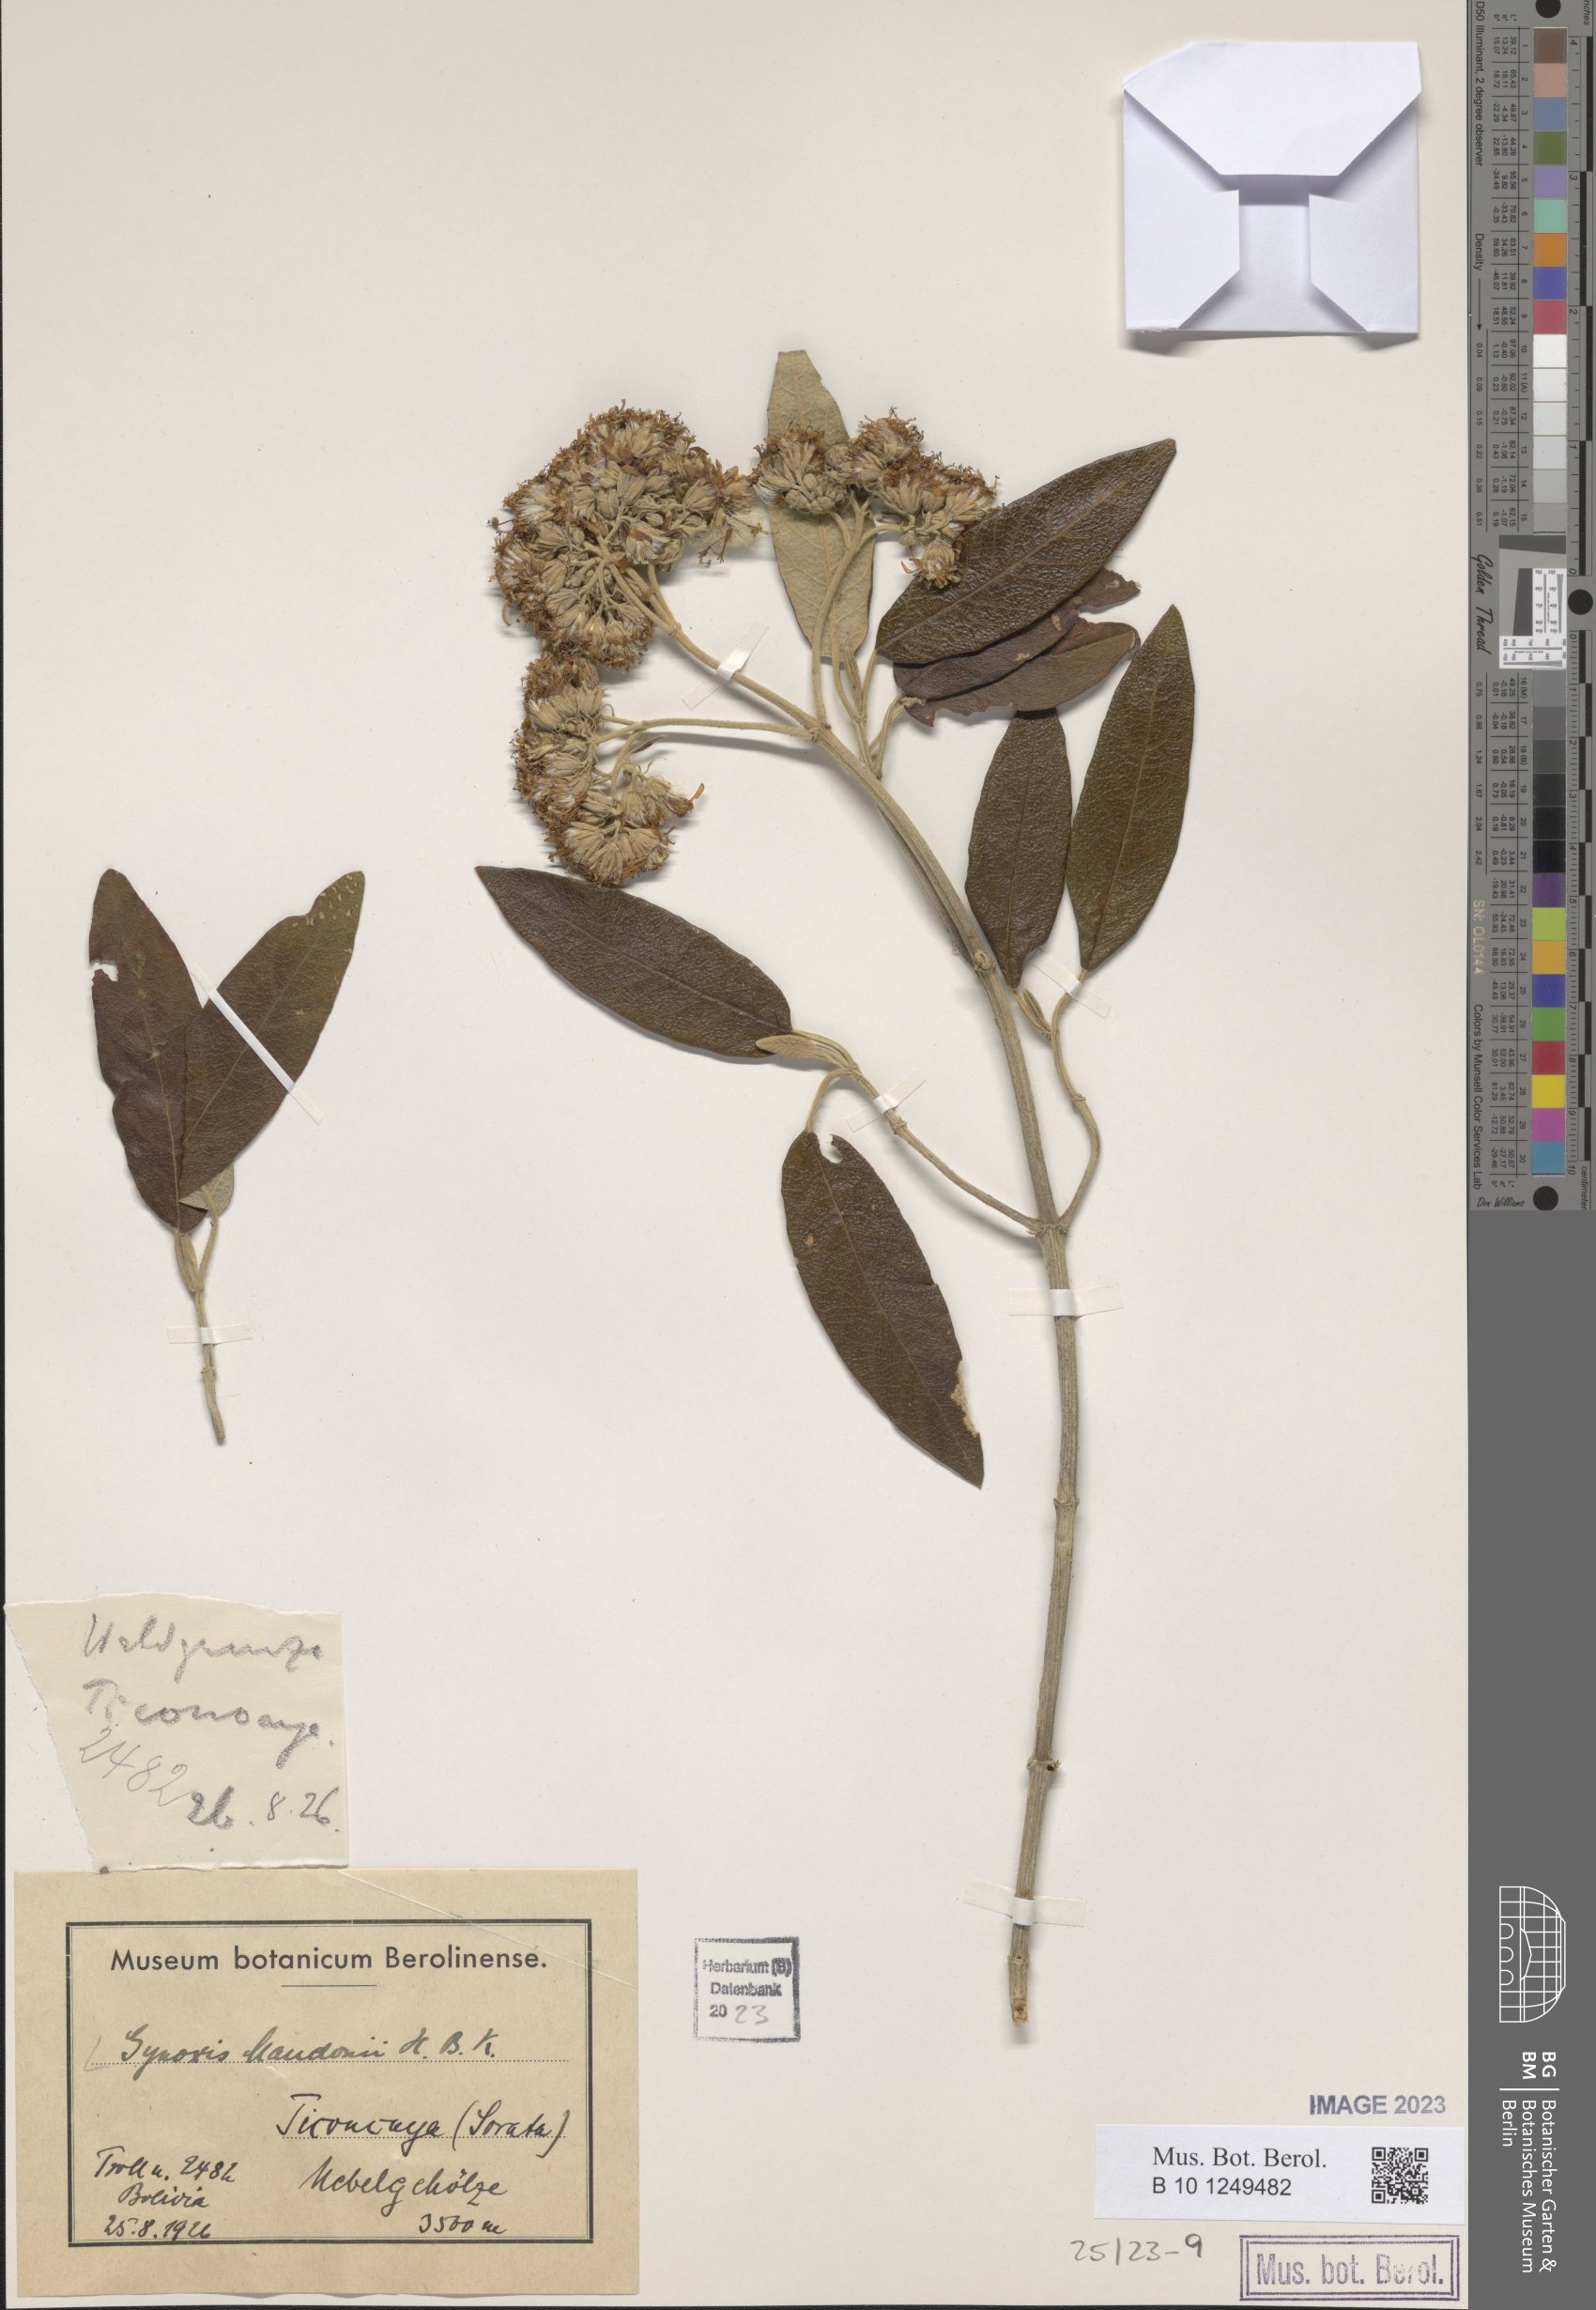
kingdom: Plantae
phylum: Tracheophyta
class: Magnoliopsida
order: Asterales
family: Asteraceae
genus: Gynoxys
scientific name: Gynoxys mandonii
